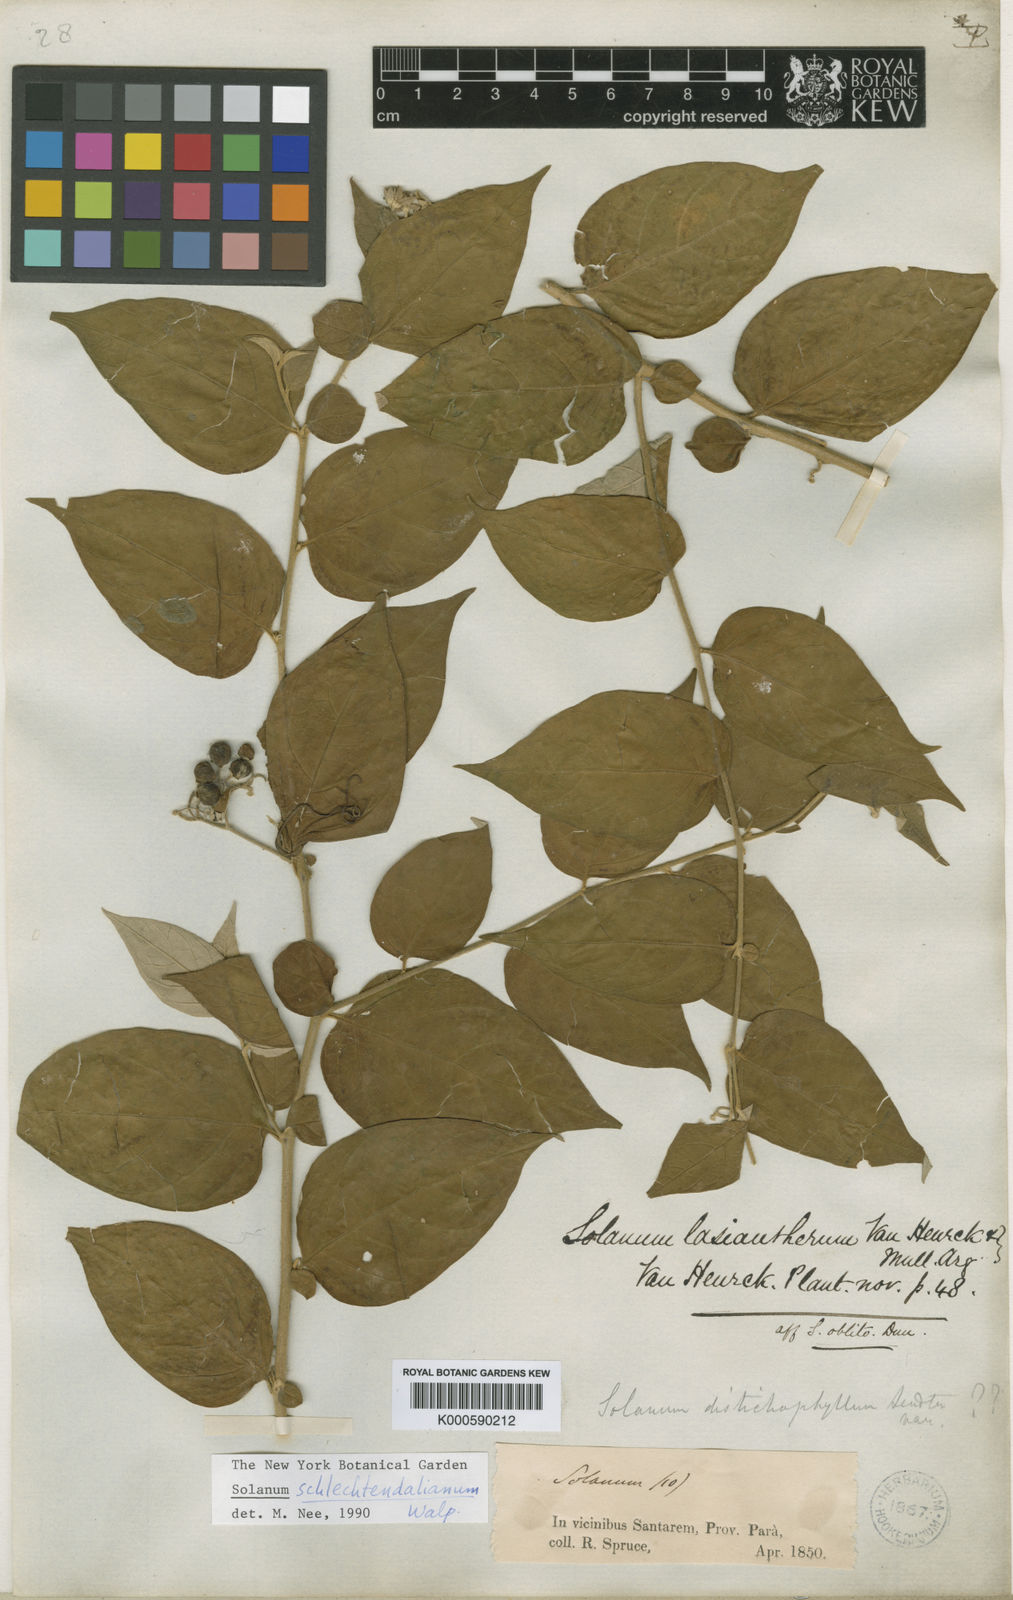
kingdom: Plantae
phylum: Tracheophyta
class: Magnoliopsida
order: Solanales
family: Solanaceae
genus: Solanum
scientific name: Solanum schlechtendalianum
